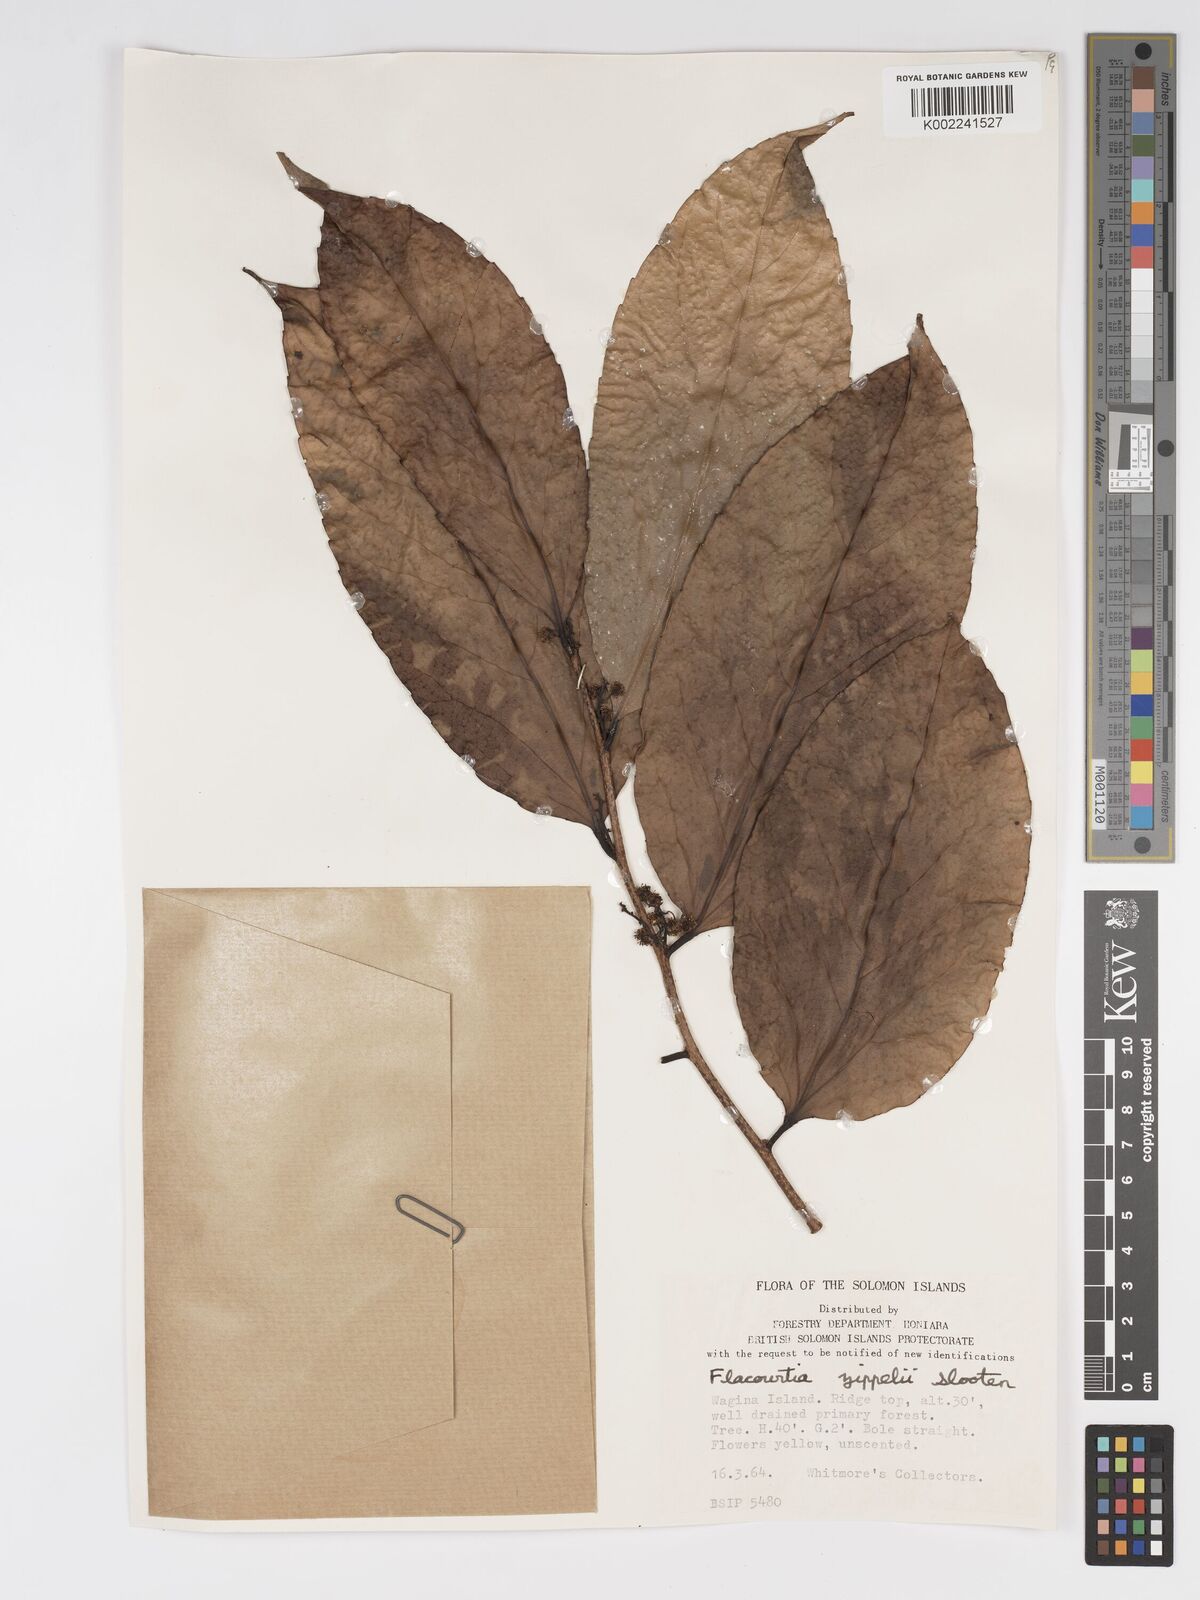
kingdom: Plantae
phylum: Tracheophyta
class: Magnoliopsida
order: Malpighiales
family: Salicaceae
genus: Flacourtia
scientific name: Flacourtia zippelii
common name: Zippeli plum
